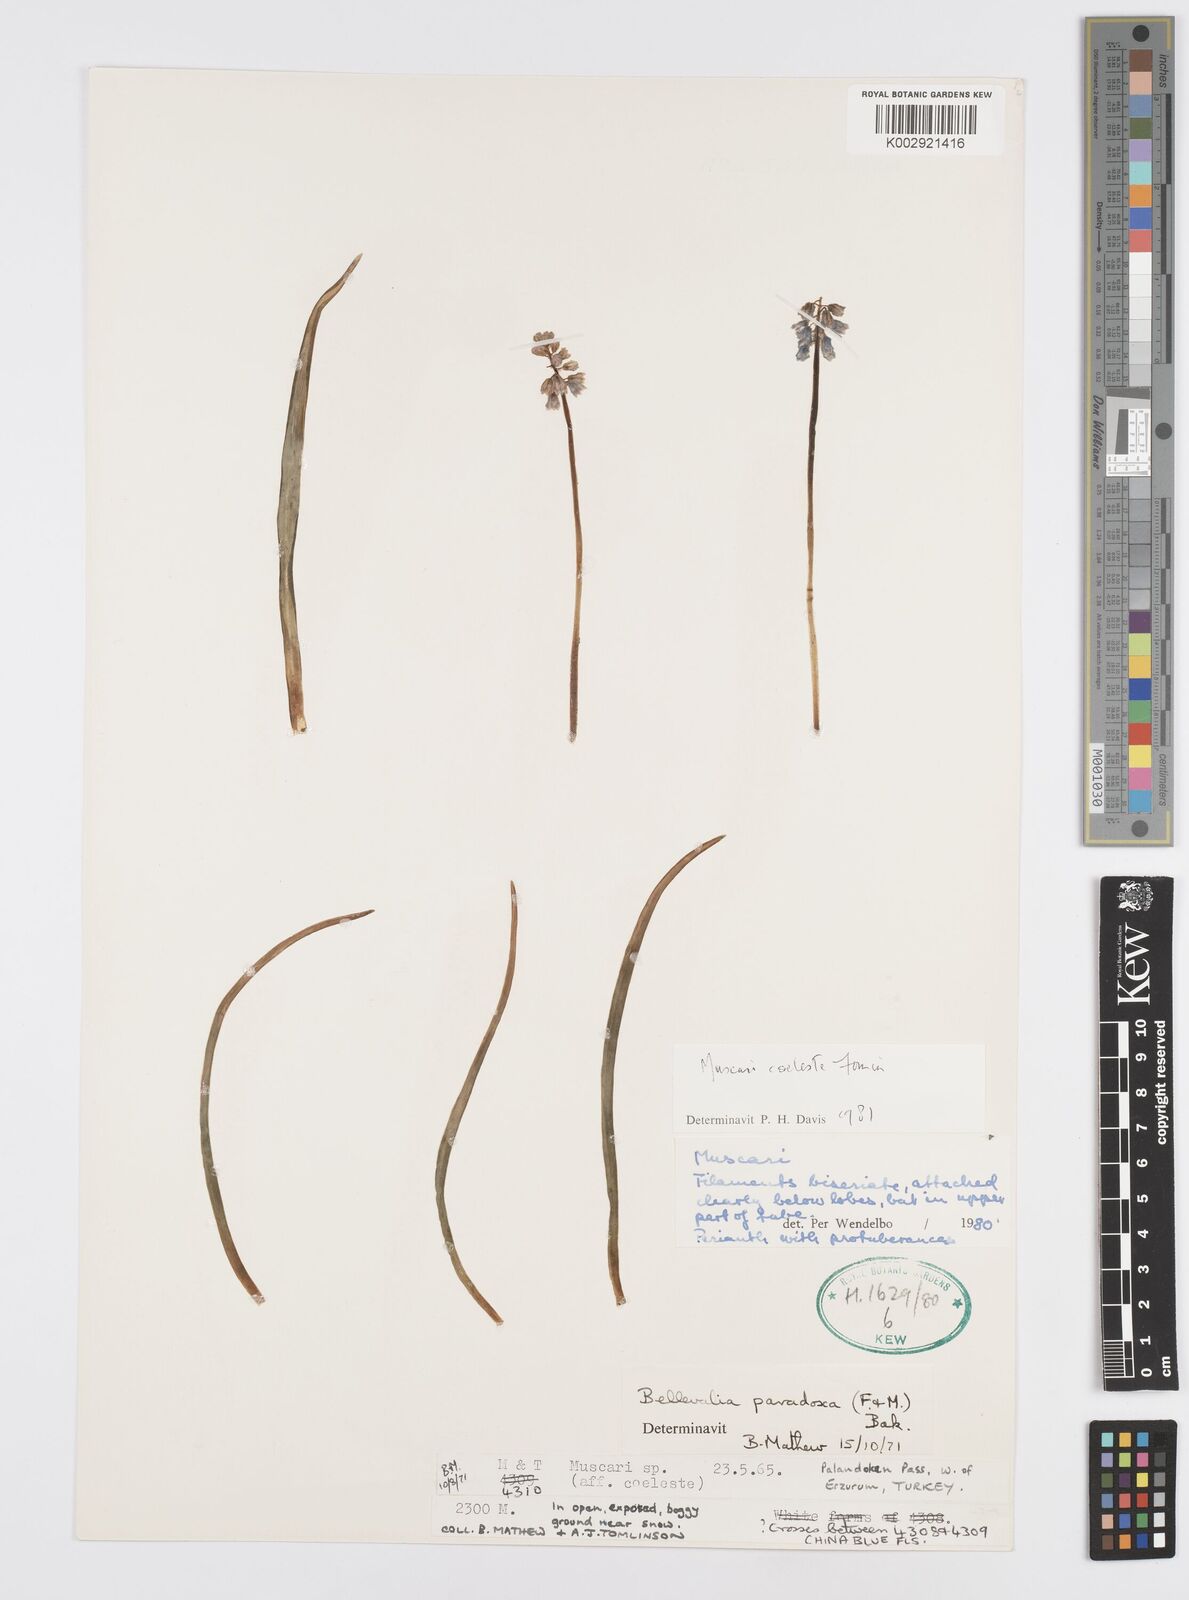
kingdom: Plantae
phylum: Tracheophyta
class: Liliopsida
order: Asparagales
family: Asparagaceae
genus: Muscari
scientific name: Muscari
